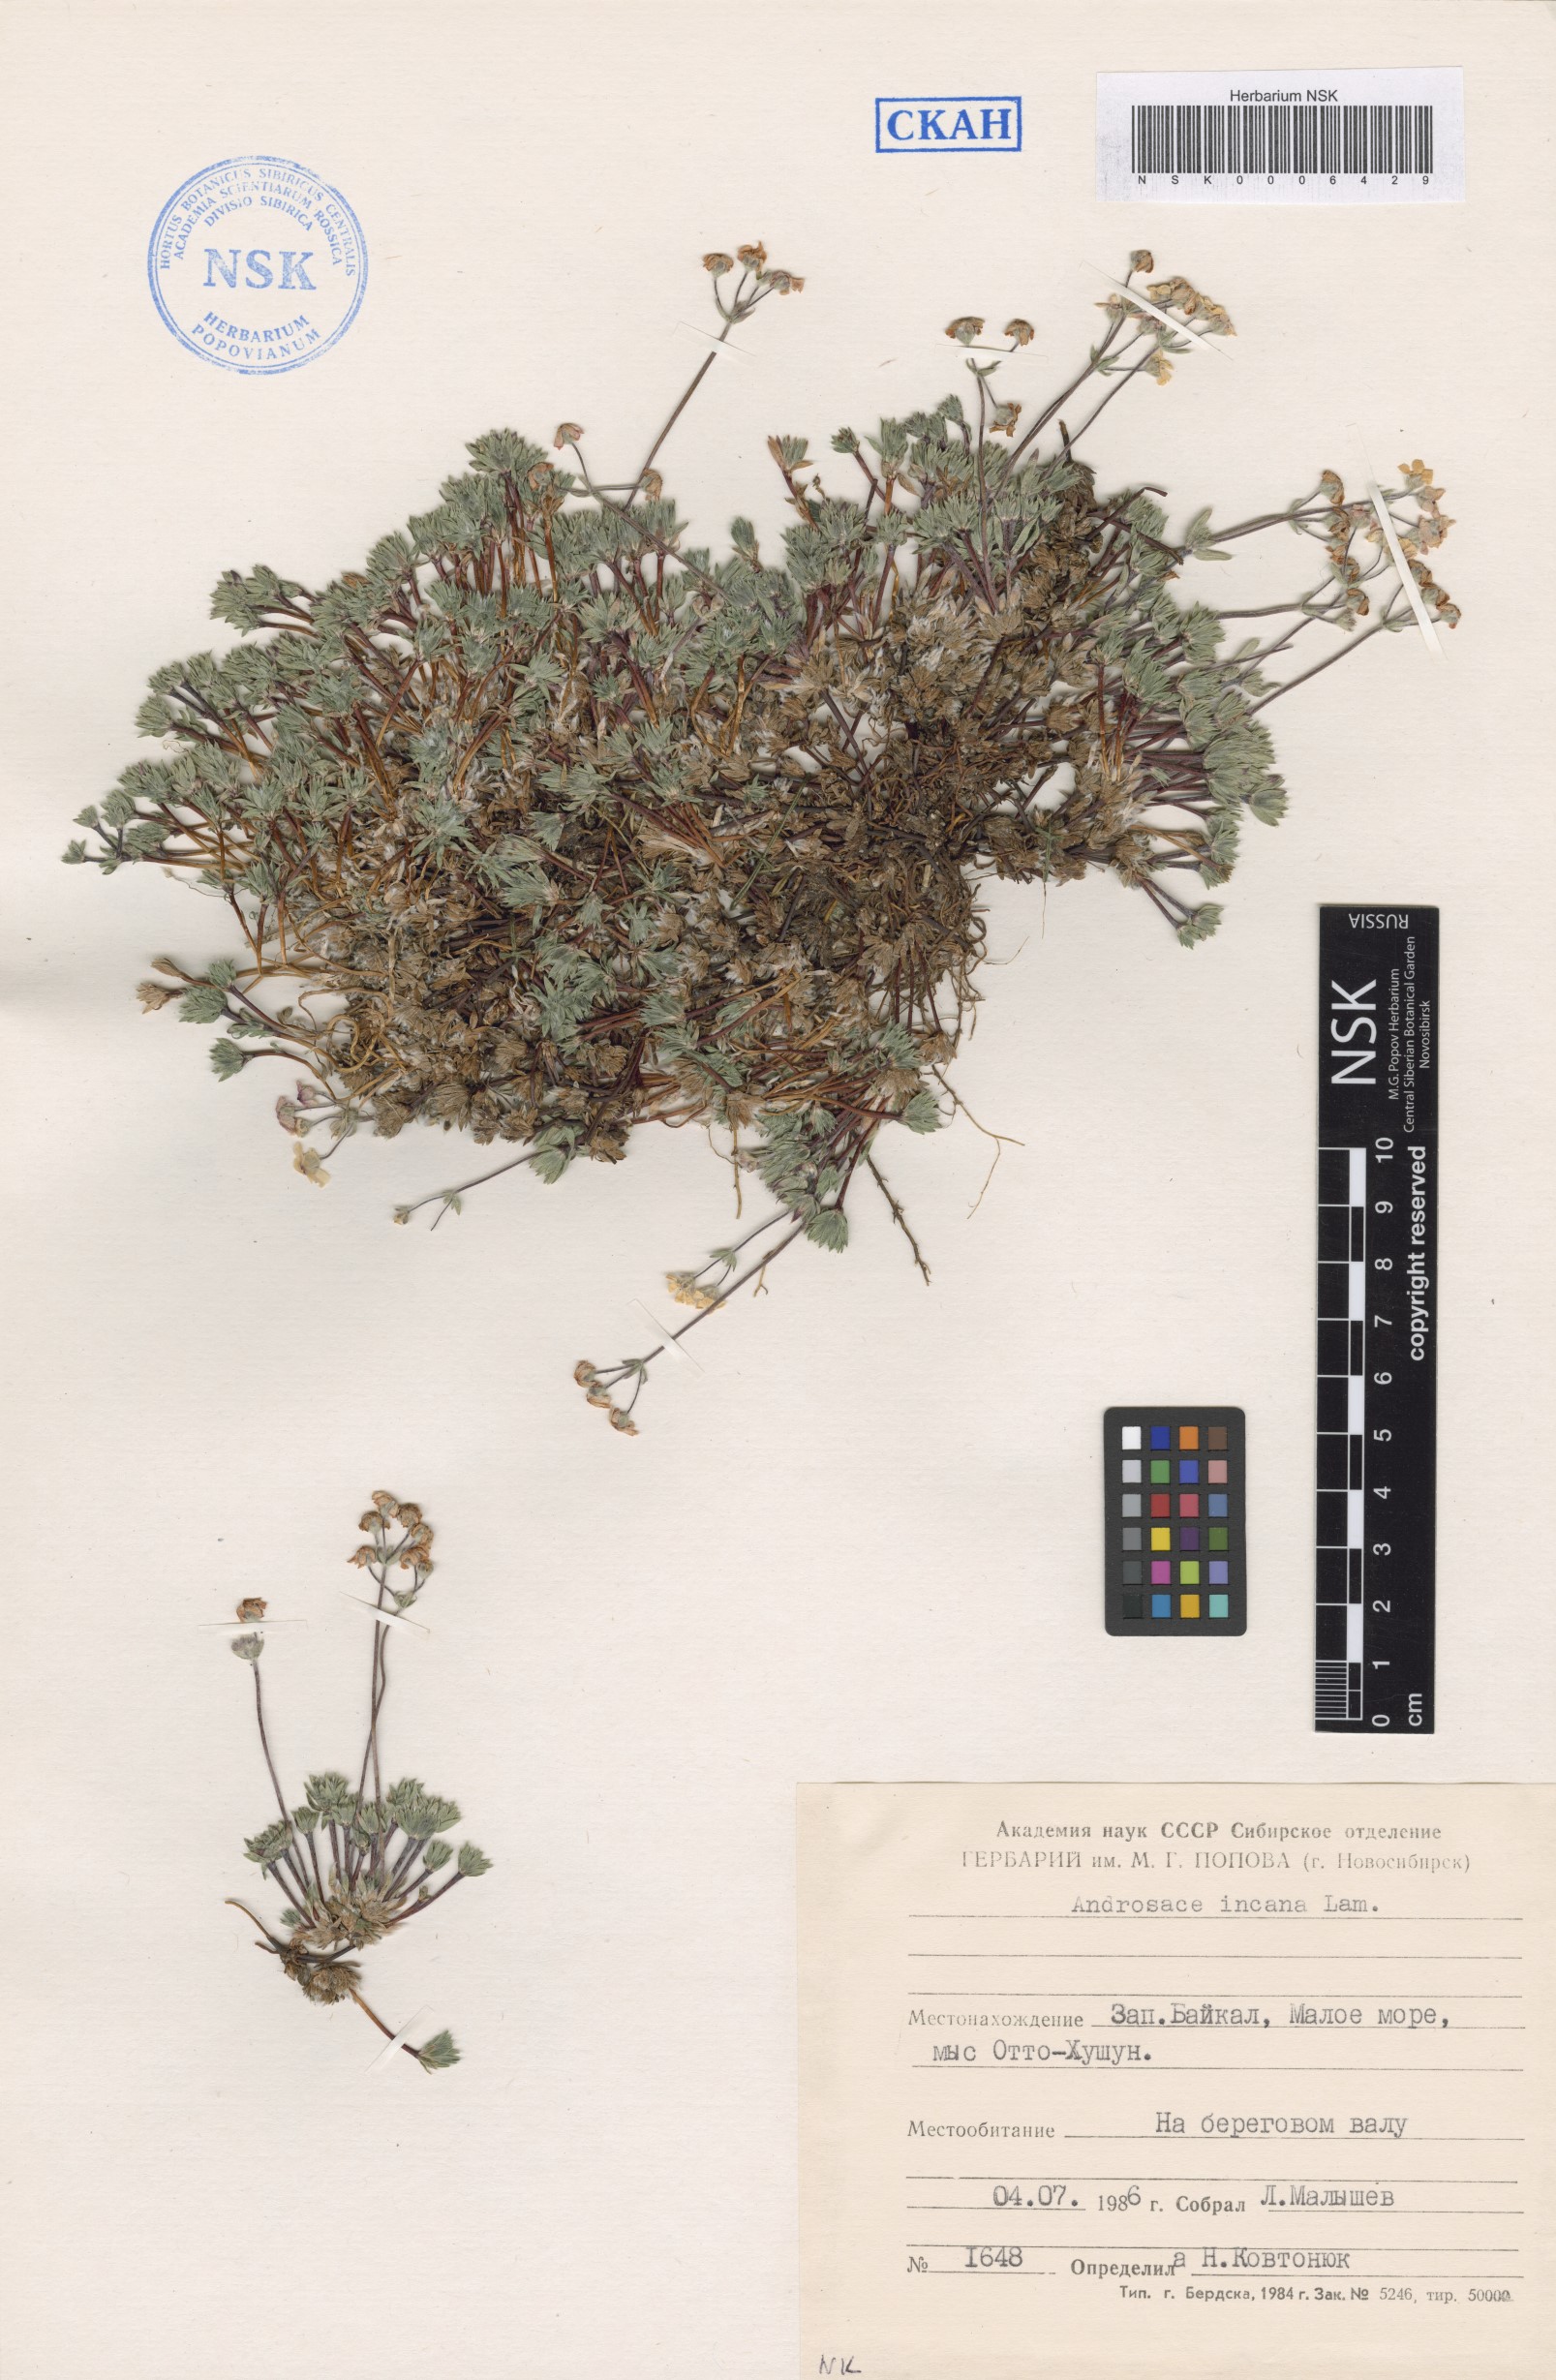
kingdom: Plantae
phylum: Tracheophyta
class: Magnoliopsida
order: Ericales
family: Primulaceae
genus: Androsace
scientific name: Androsace incana
